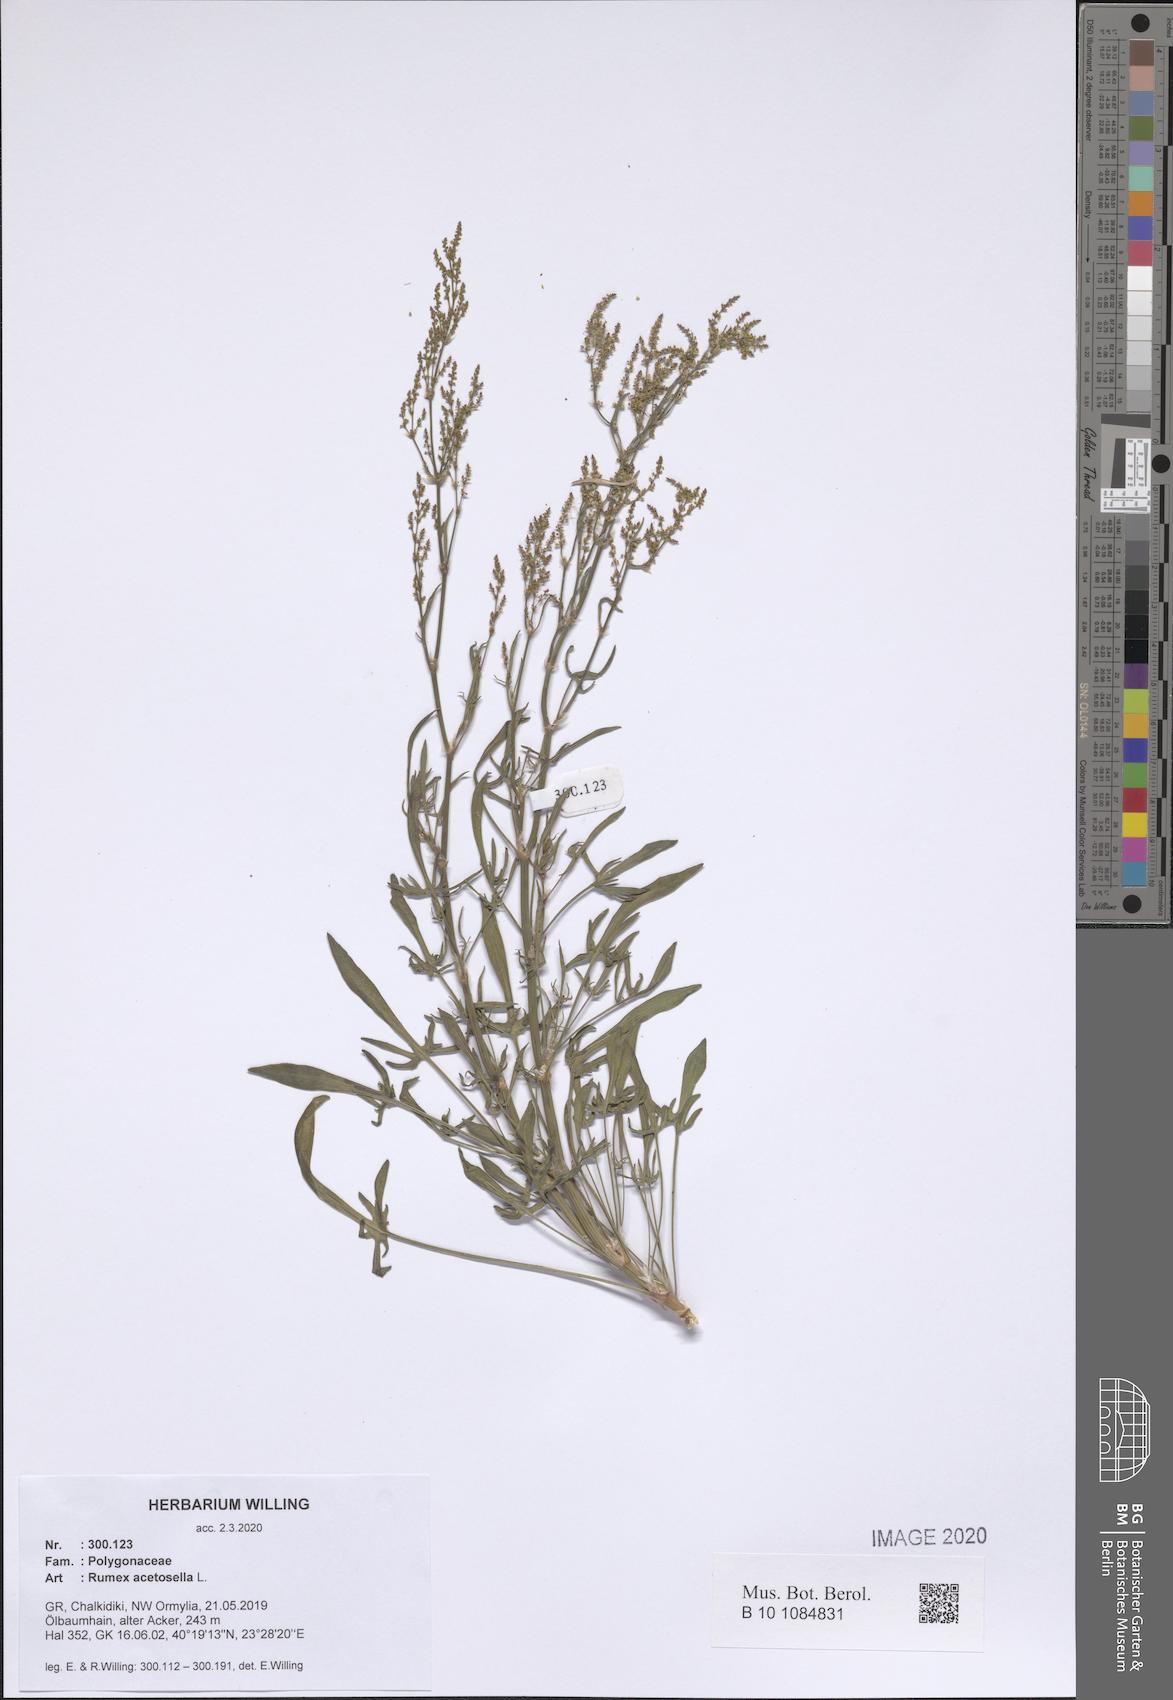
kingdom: Plantae
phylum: Tracheophyta
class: Magnoliopsida
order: Caryophyllales
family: Polygonaceae
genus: Rumex
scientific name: Rumex acetosella
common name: Common sheep sorrel
